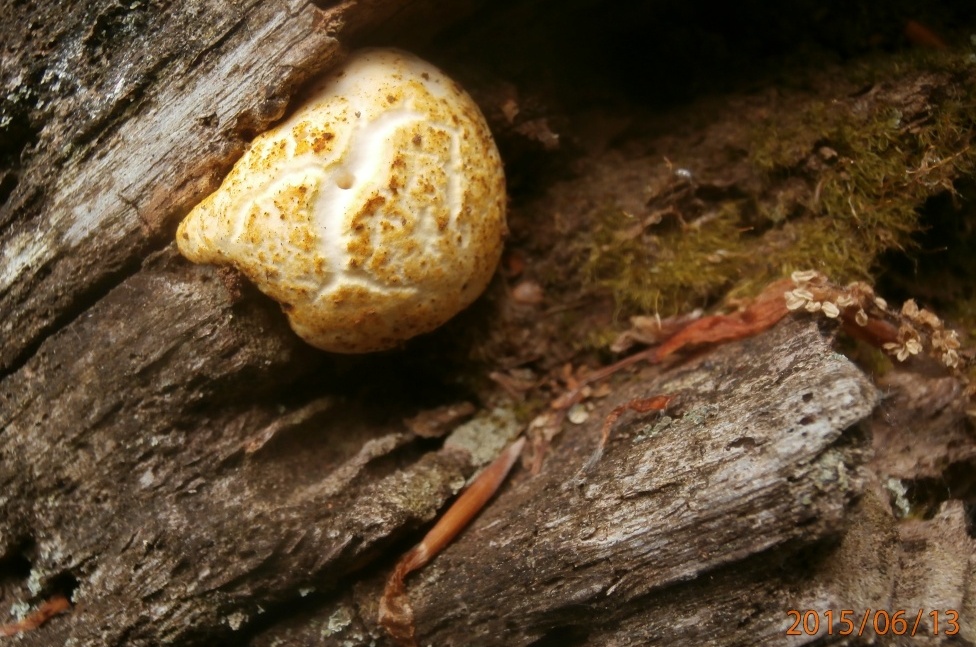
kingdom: Fungi
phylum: Basidiomycota
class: Agaricomycetes
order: Polyporales
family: Fomitopsidaceae
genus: Buglossoporus
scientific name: Buglossoporus quercinus
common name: egetunge
